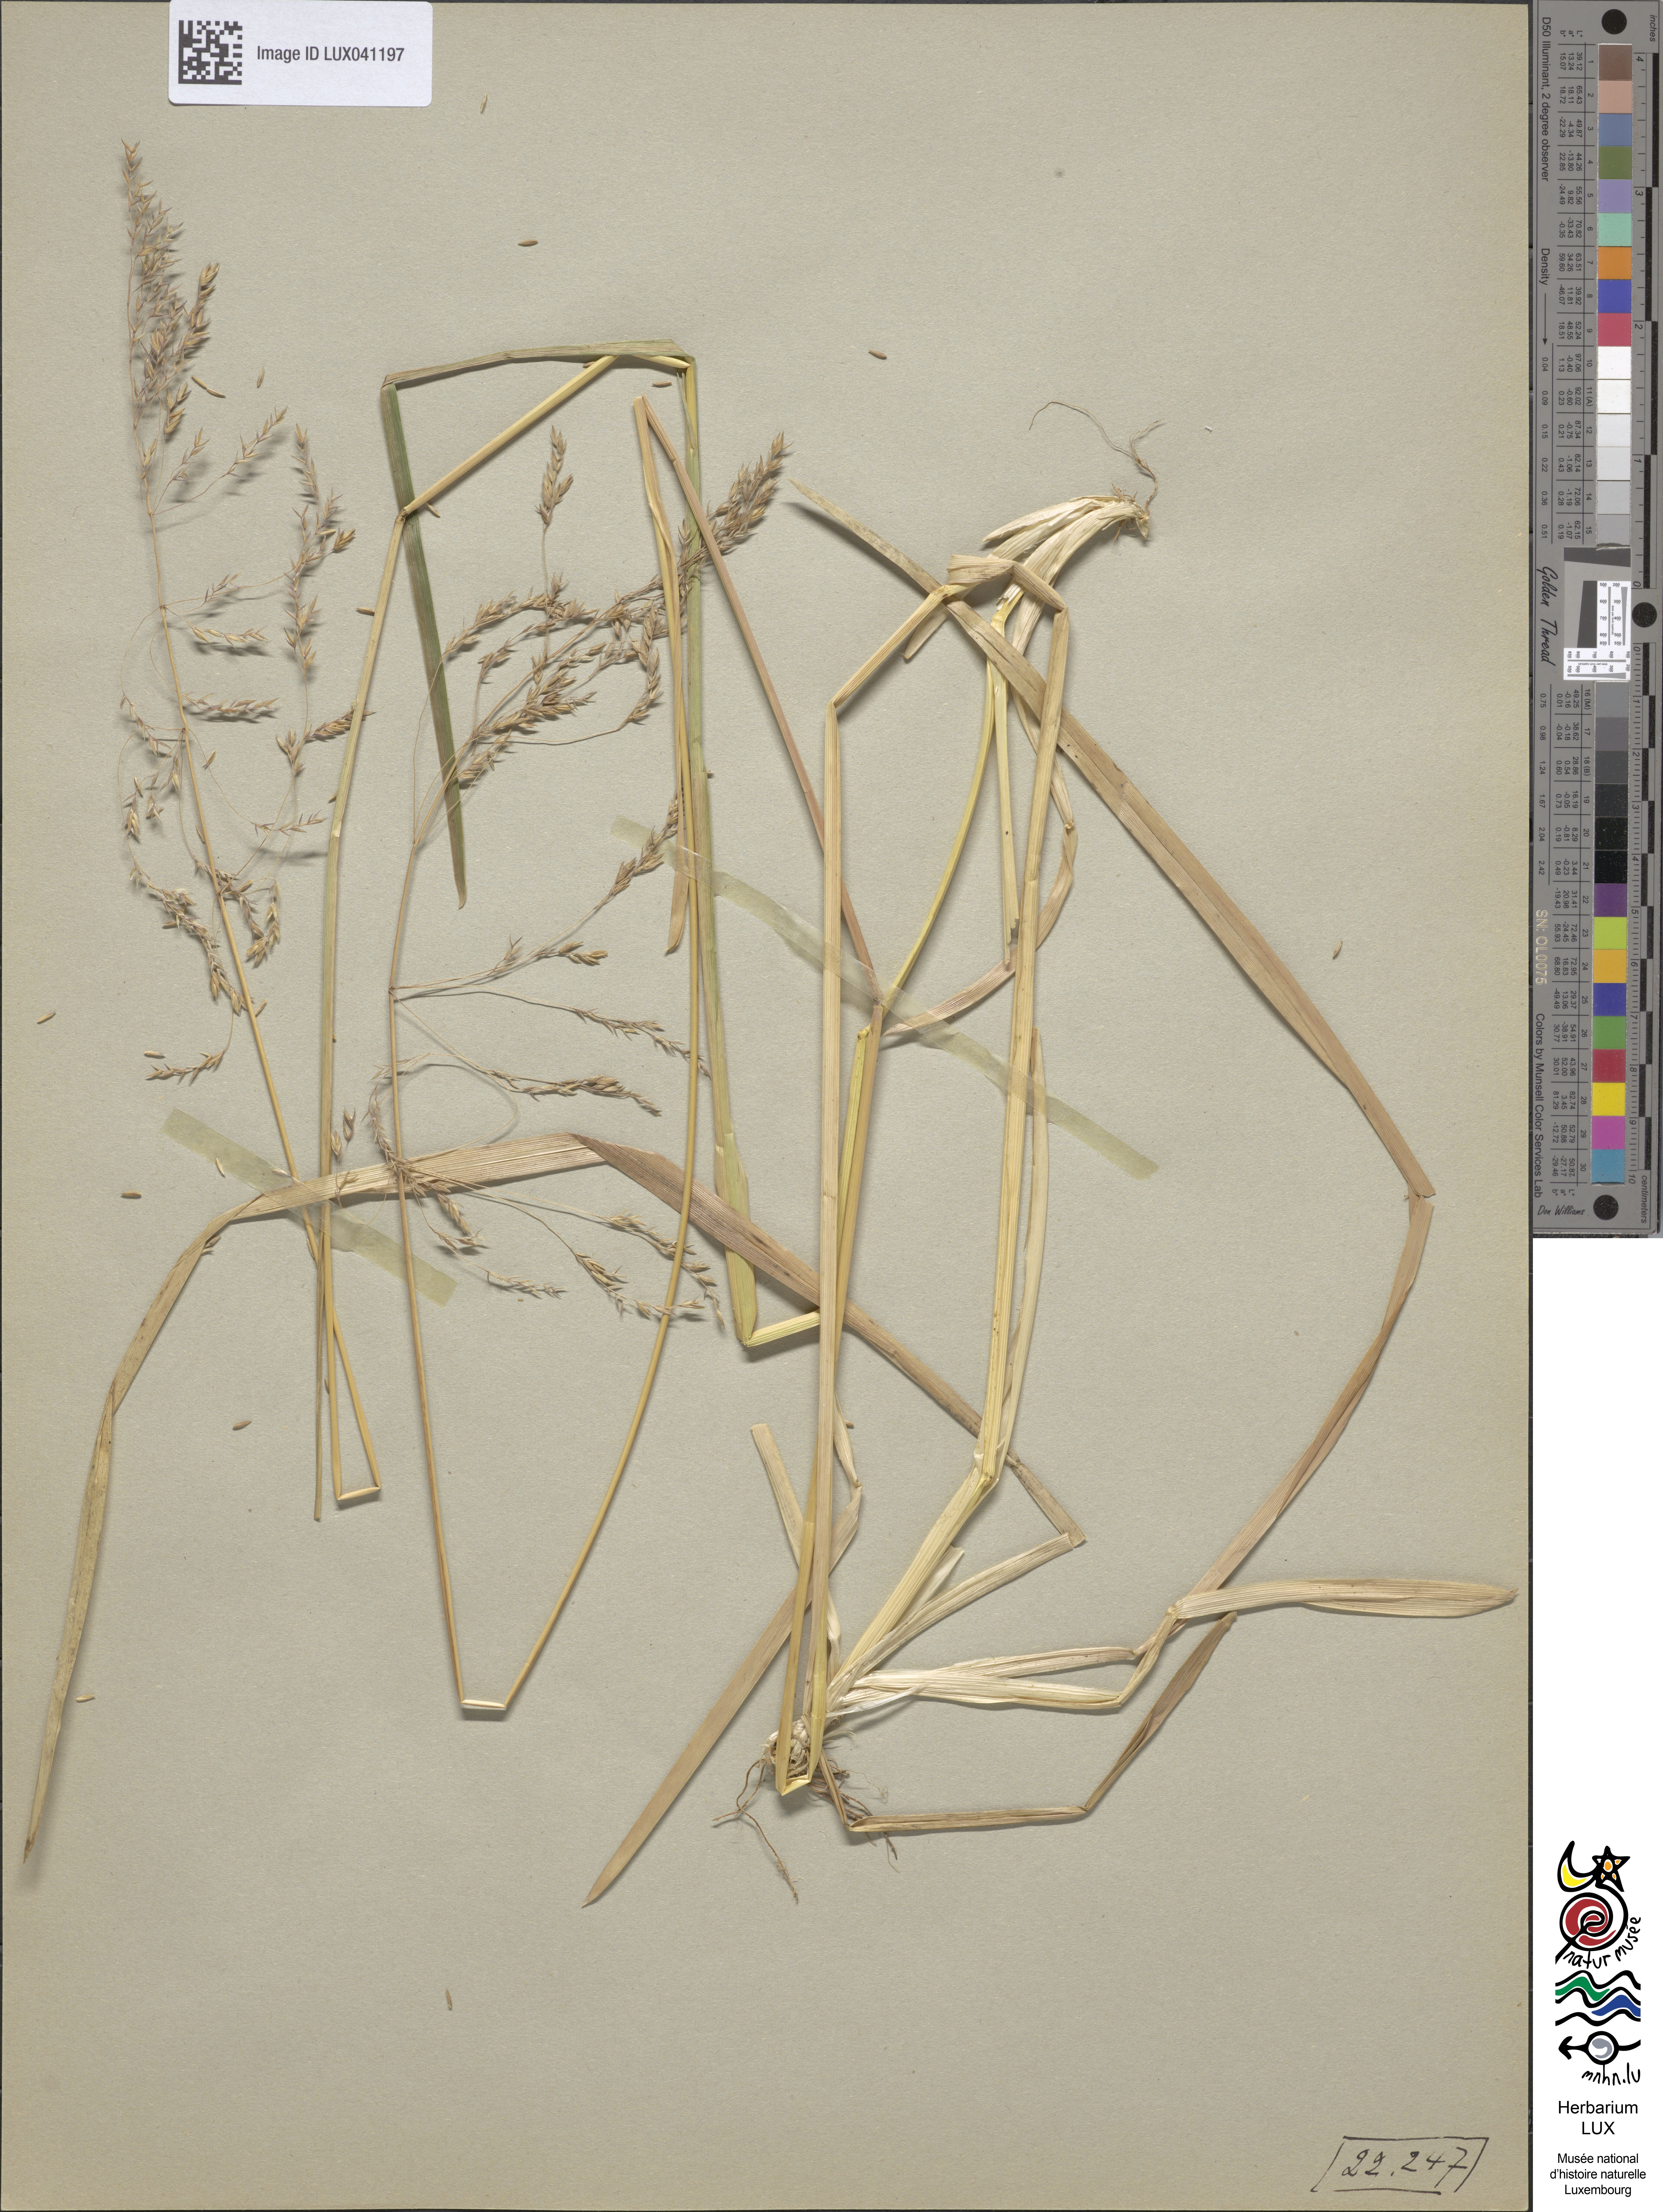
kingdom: Plantae
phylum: Tracheophyta
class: Liliopsida
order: Poales
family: Poaceae
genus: Poa
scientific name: Poa chaixii
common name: Broad-leaved meadow-grass
